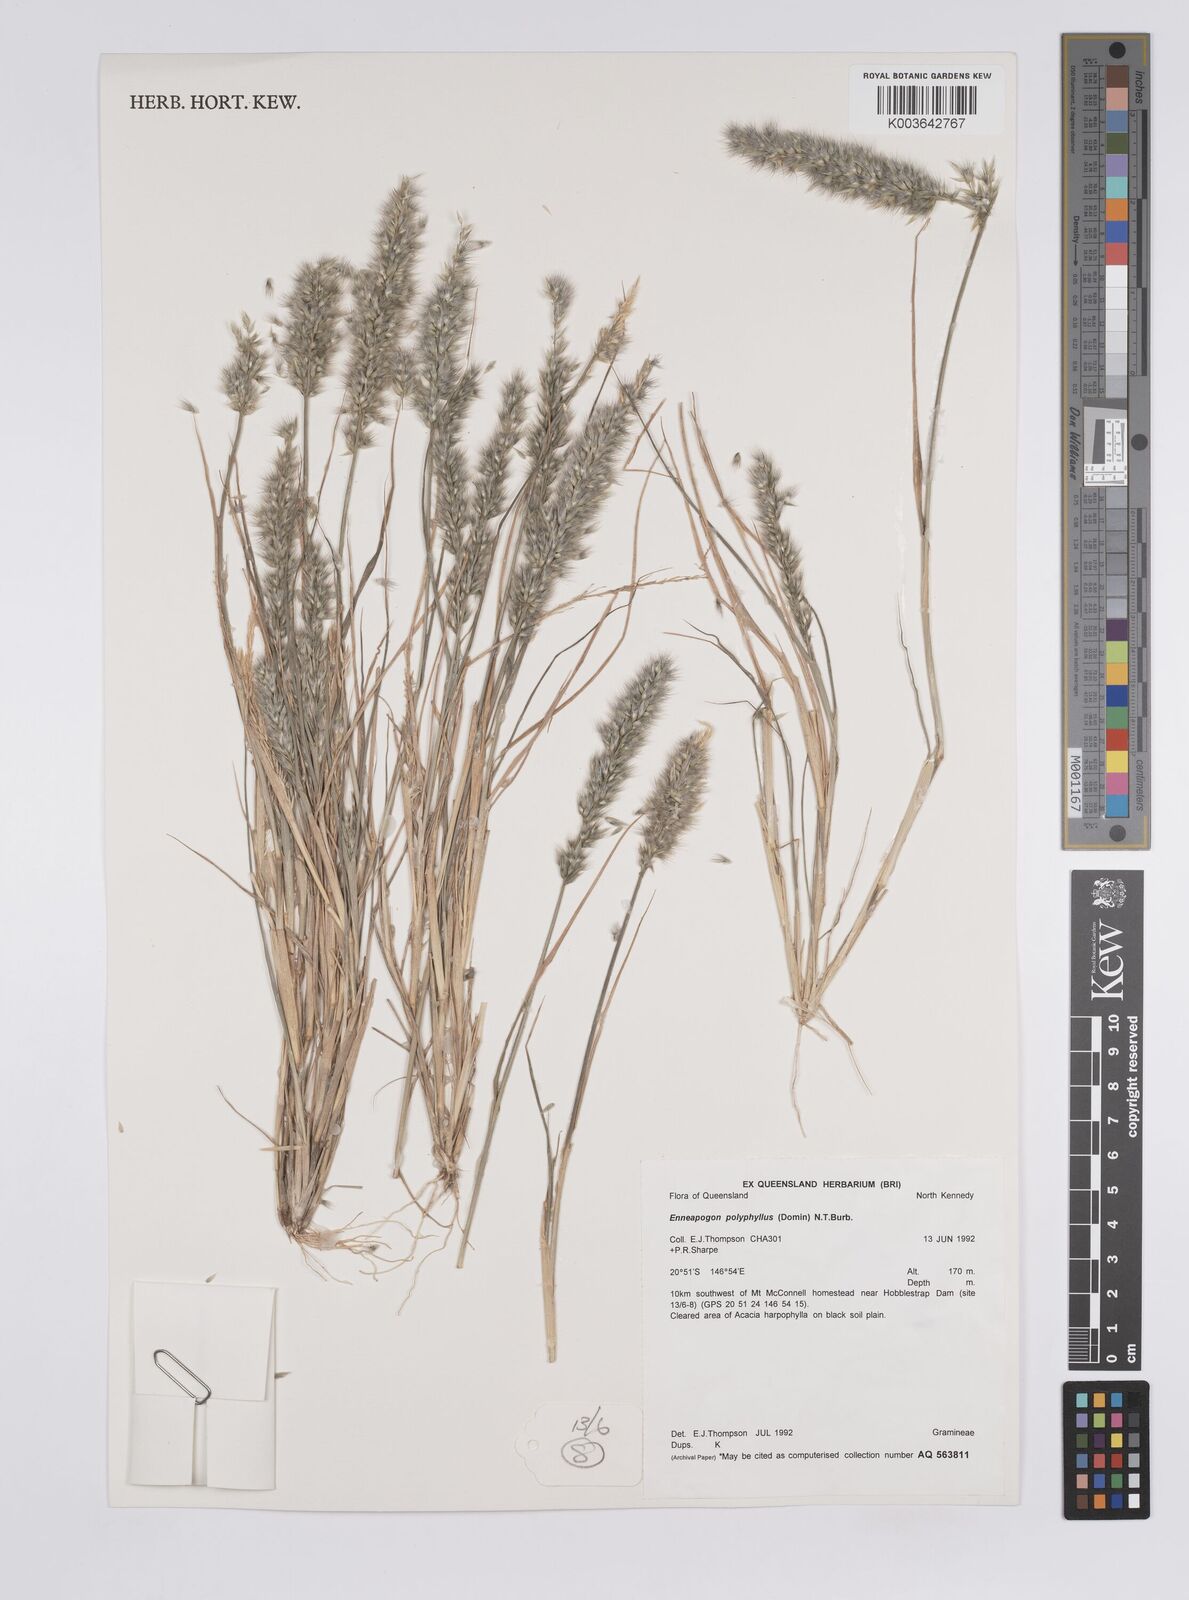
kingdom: Plantae
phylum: Tracheophyta
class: Liliopsida
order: Poales
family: Poaceae
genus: Enneapogon
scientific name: Enneapogon polyphyllus
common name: Leafy nineawn
